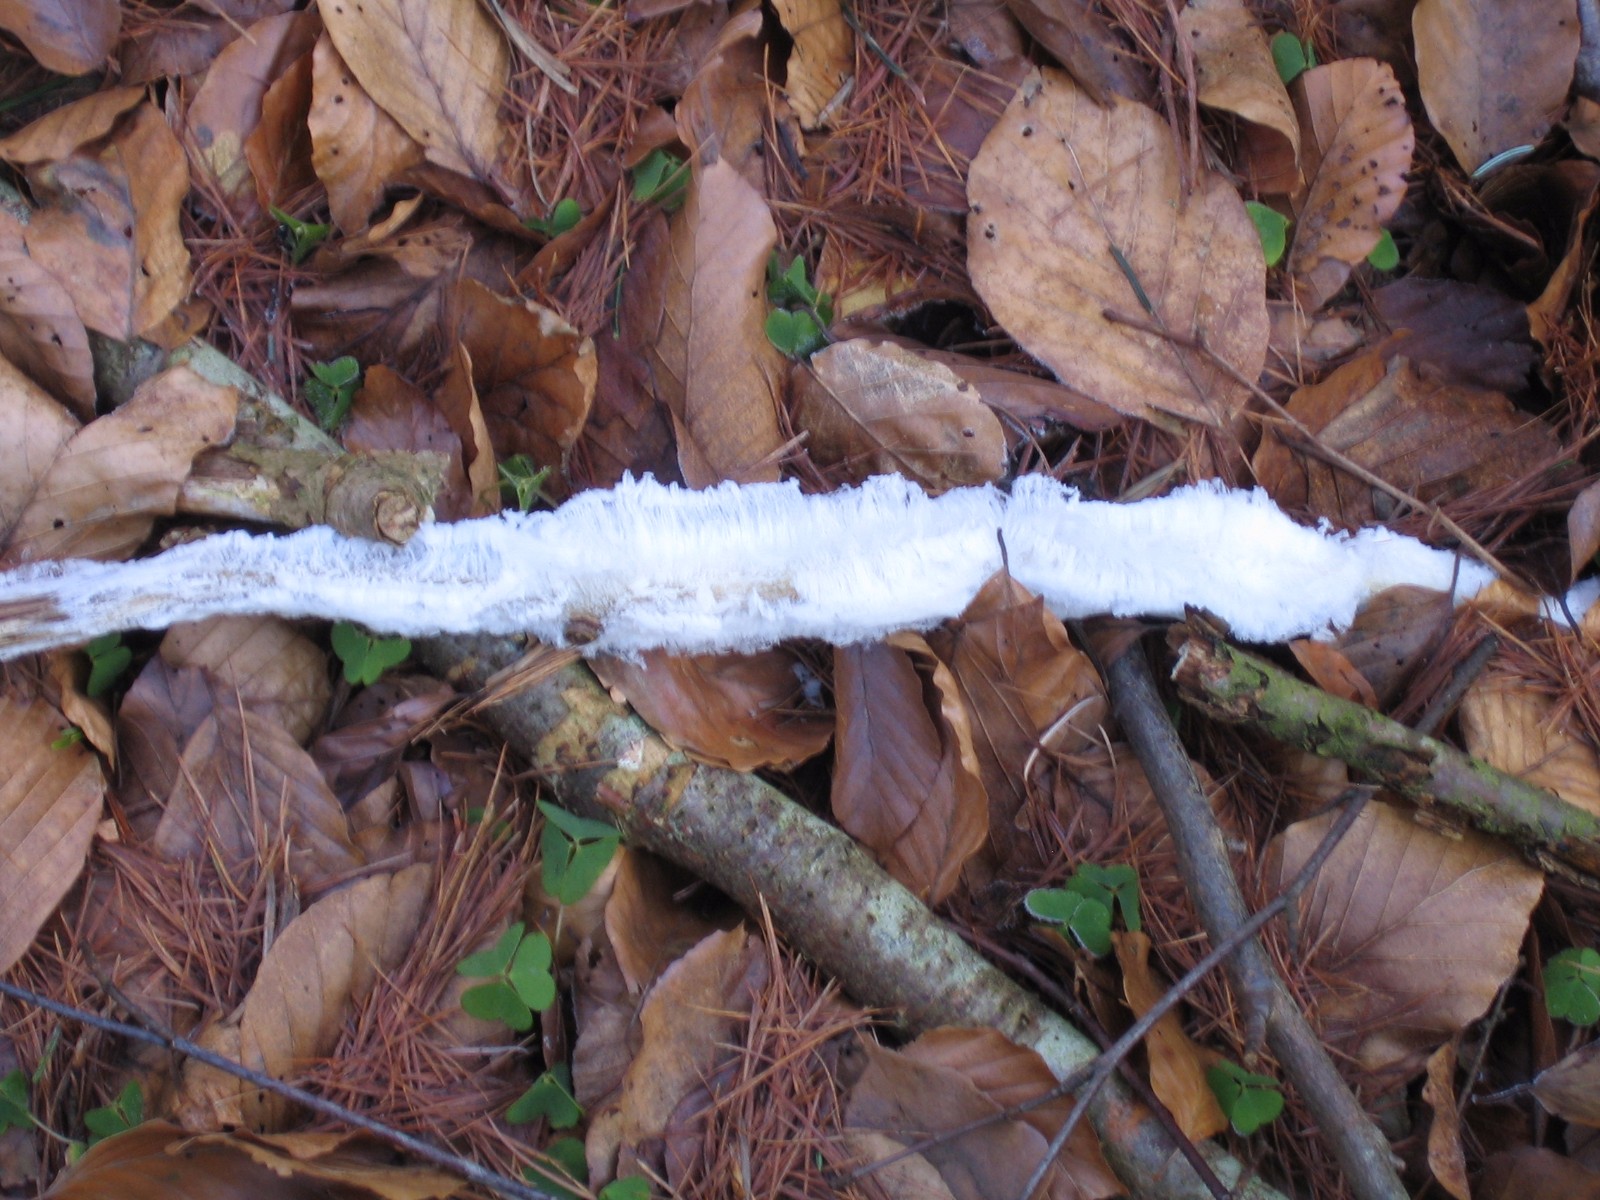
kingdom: Fungi
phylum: Basidiomycota
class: Tremellomycetes
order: Tremellales
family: Exidiaceae
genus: Exidiopsis
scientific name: Exidiopsis effusa
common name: smuk bævrehinde
